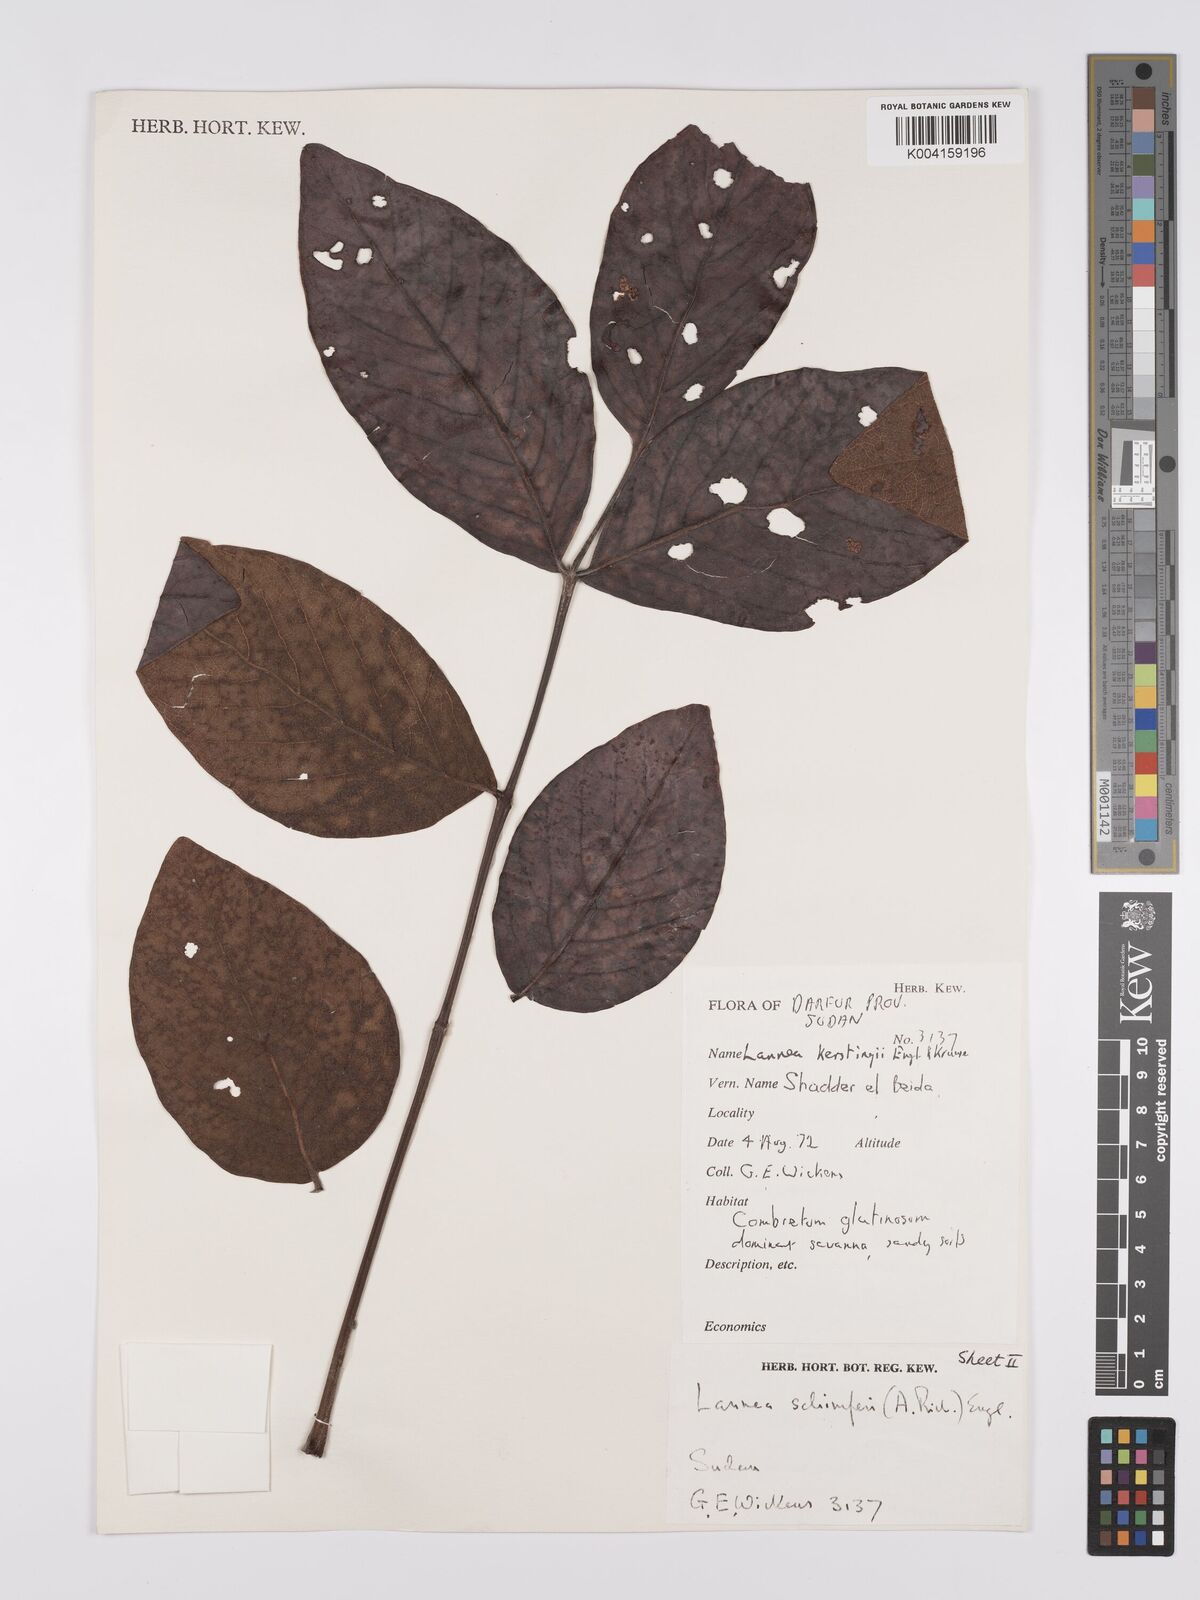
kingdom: Plantae
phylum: Tracheophyta
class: Magnoliopsida
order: Sapindales
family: Anacardiaceae
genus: Lannea
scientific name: Lannea schimperi
